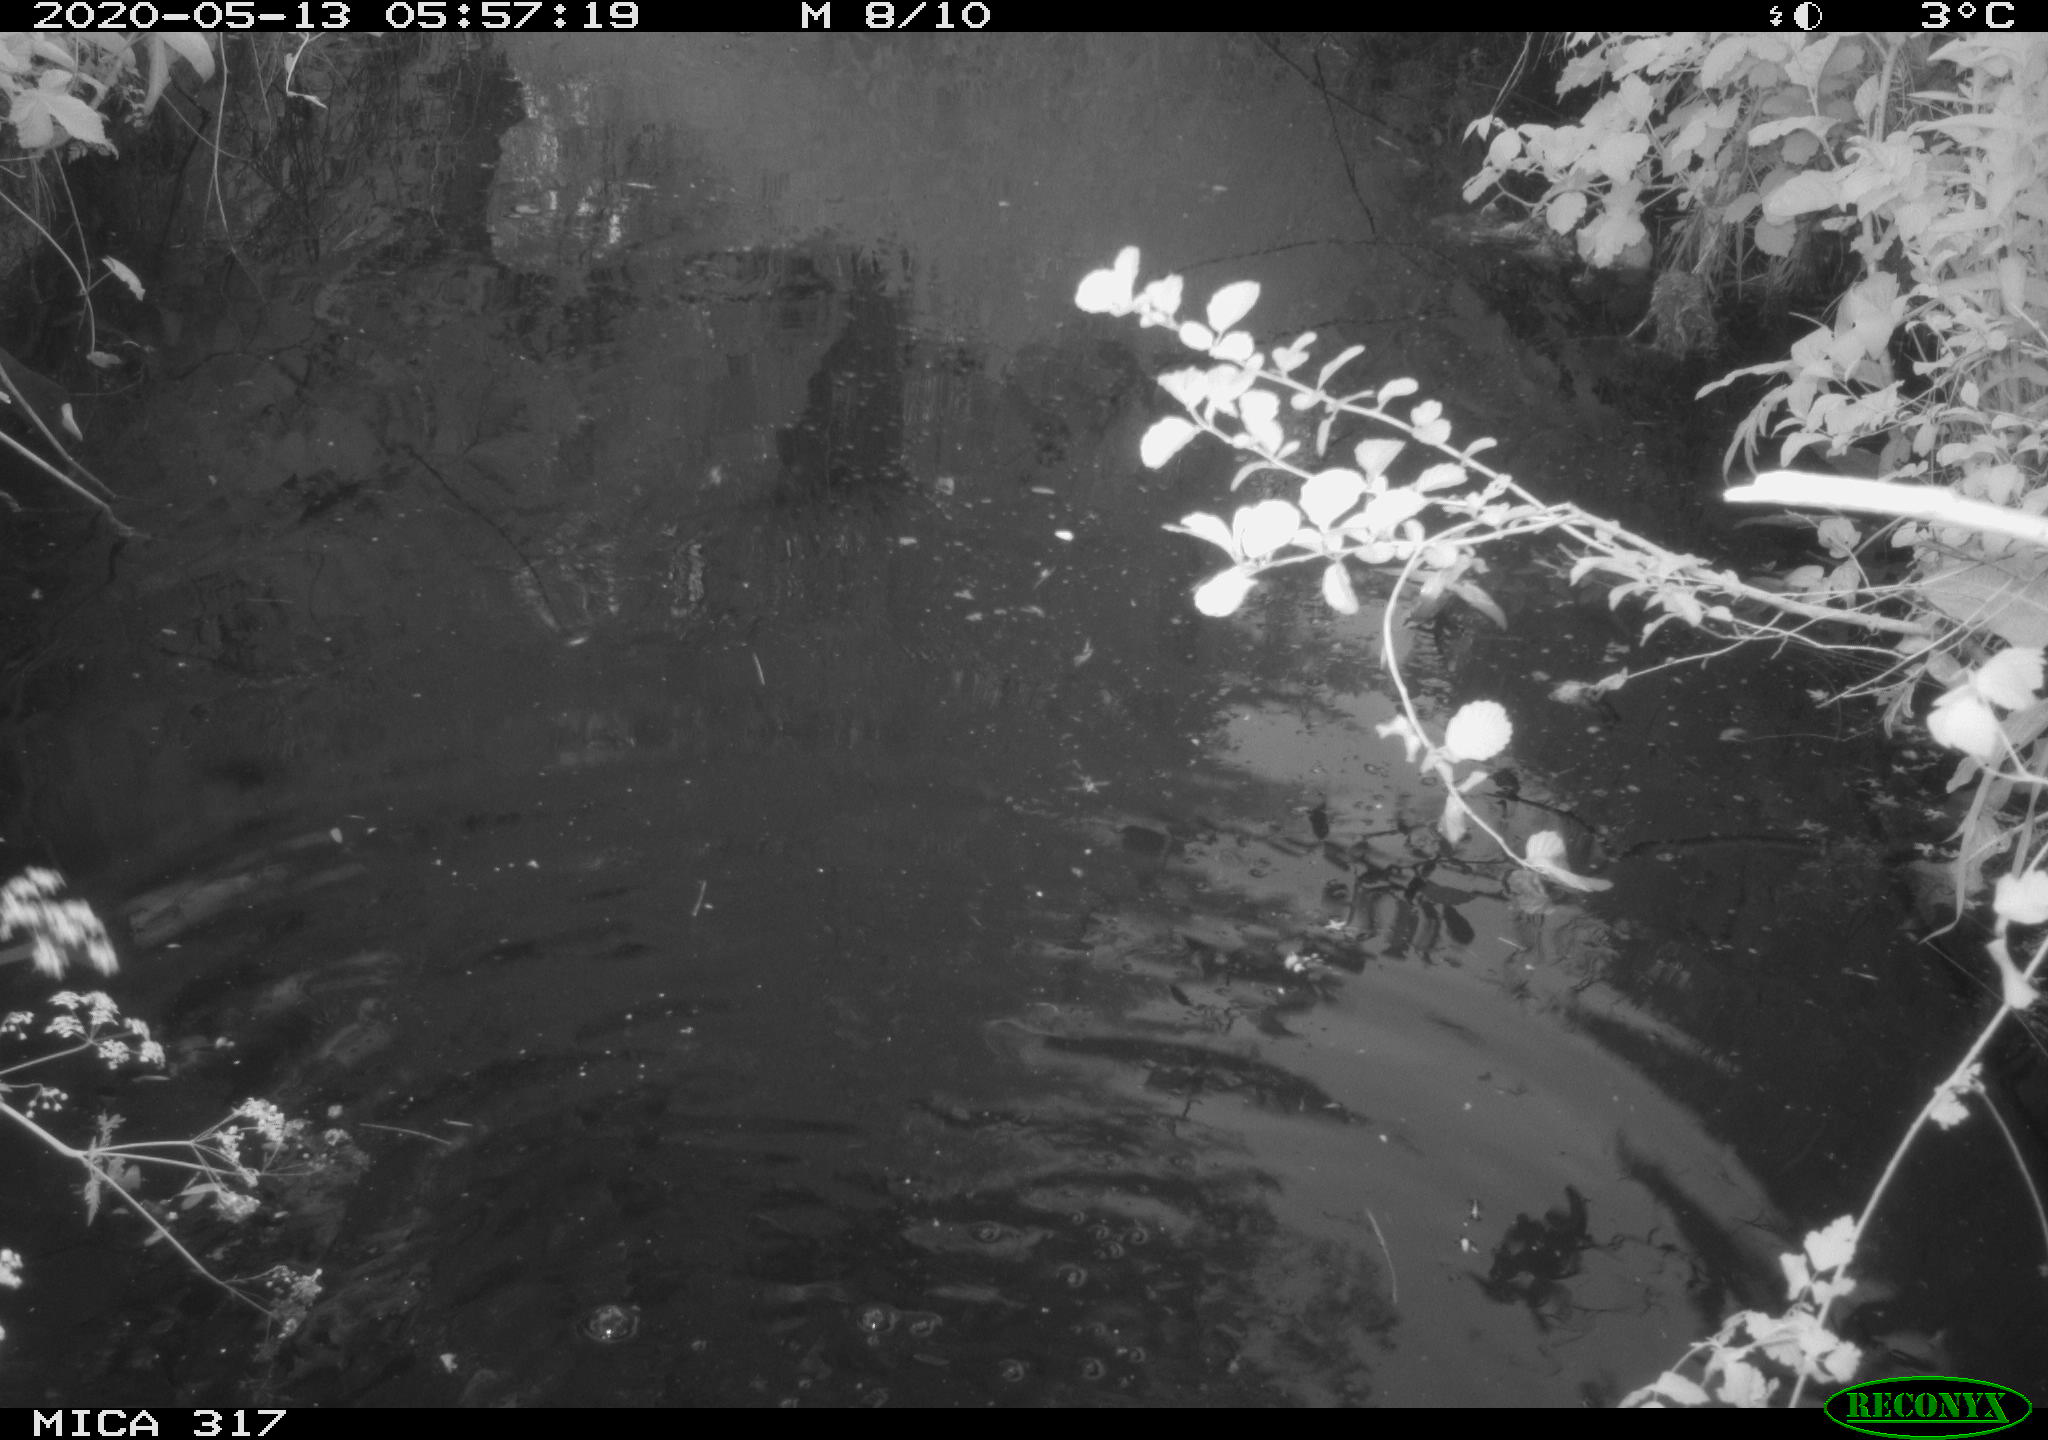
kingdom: Animalia
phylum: Chordata
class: Aves
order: Gruiformes
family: Rallidae
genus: Fulica
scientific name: Fulica atra
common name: Eurasian coot
